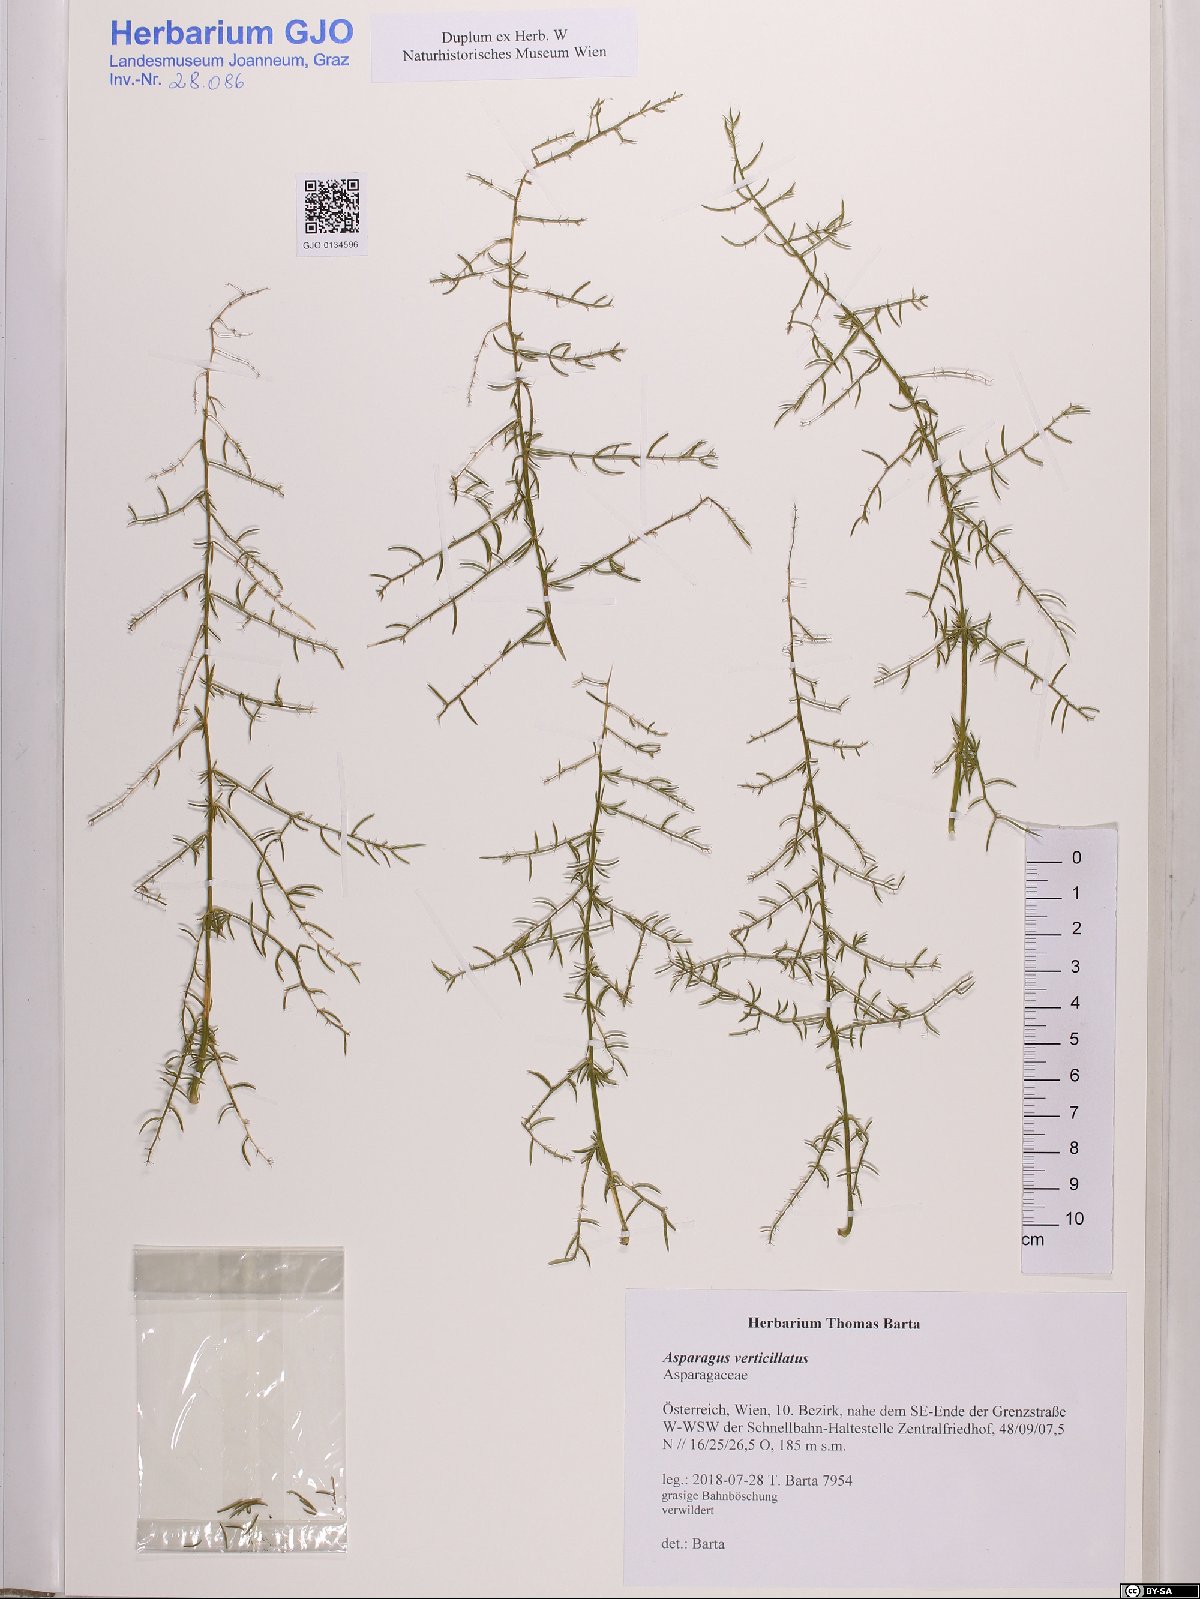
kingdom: Plantae
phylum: Tracheophyta
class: Liliopsida
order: Asparagales
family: Asparagaceae
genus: Asparagus
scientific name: Asparagus verticillatus
